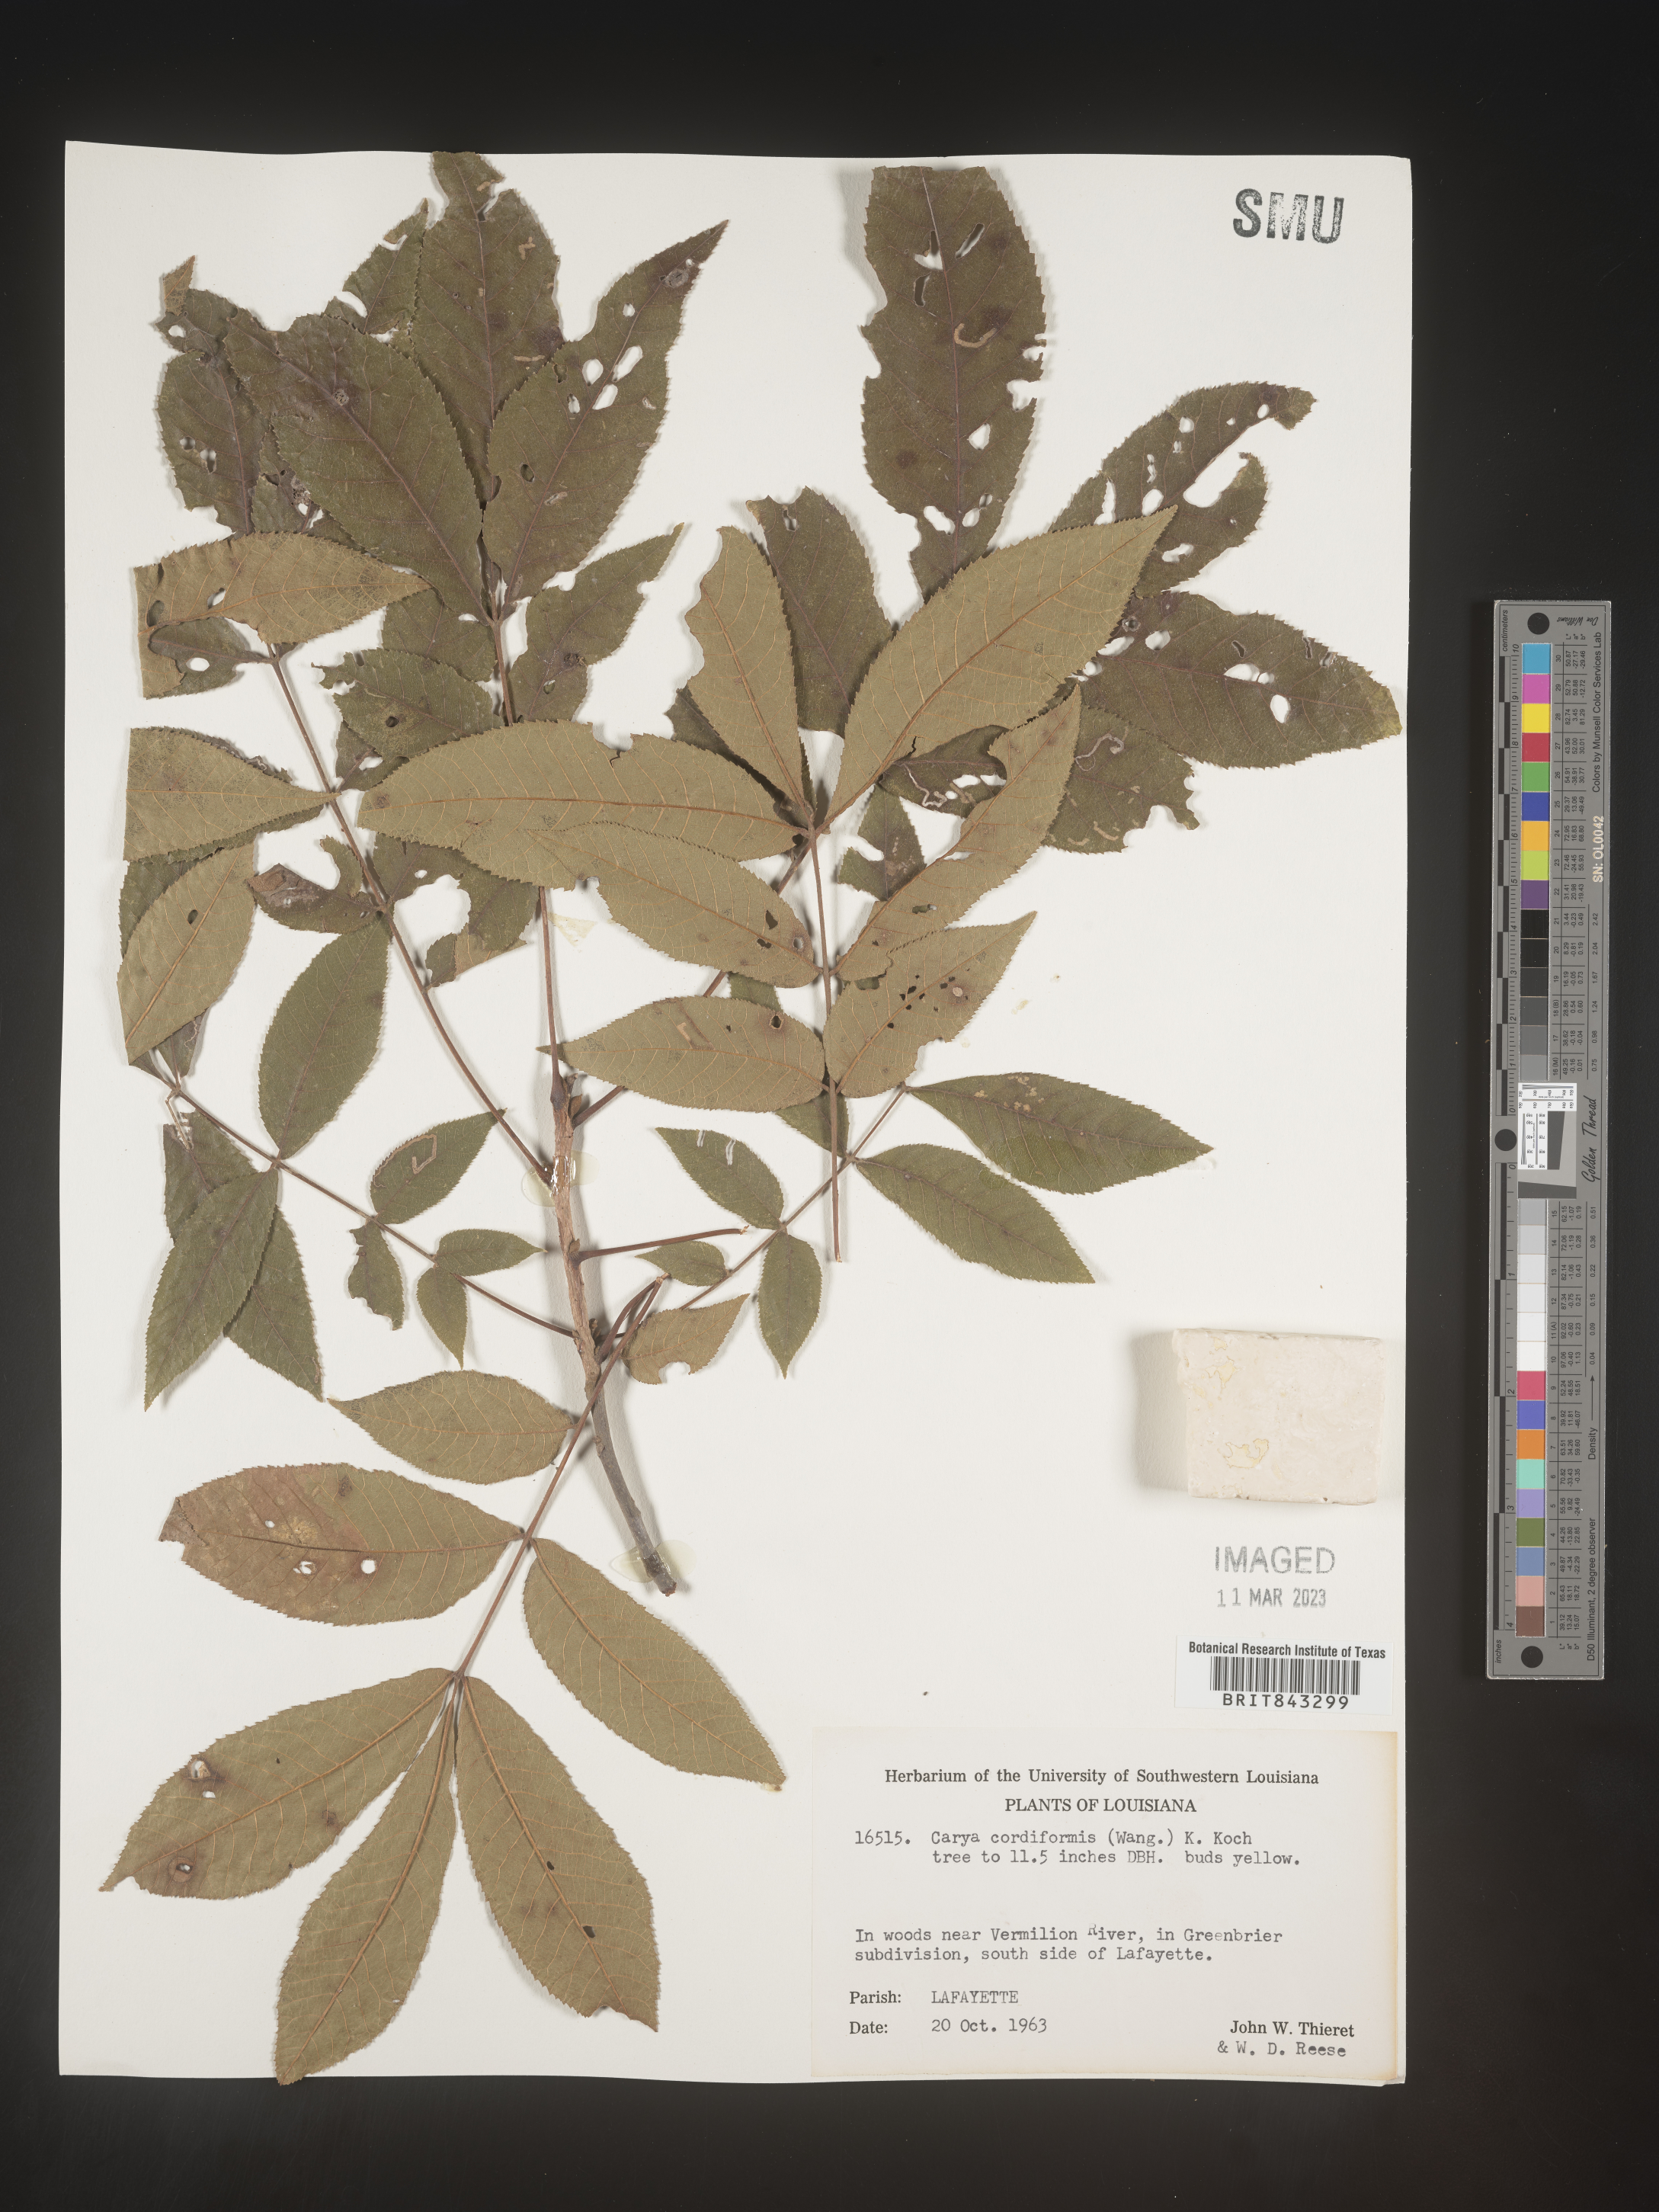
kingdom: Plantae
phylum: Tracheophyta
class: Magnoliopsida
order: Fagales
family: Juglandaceae
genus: Carya
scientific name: Carya cordiformis
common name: Bitternut hickory
